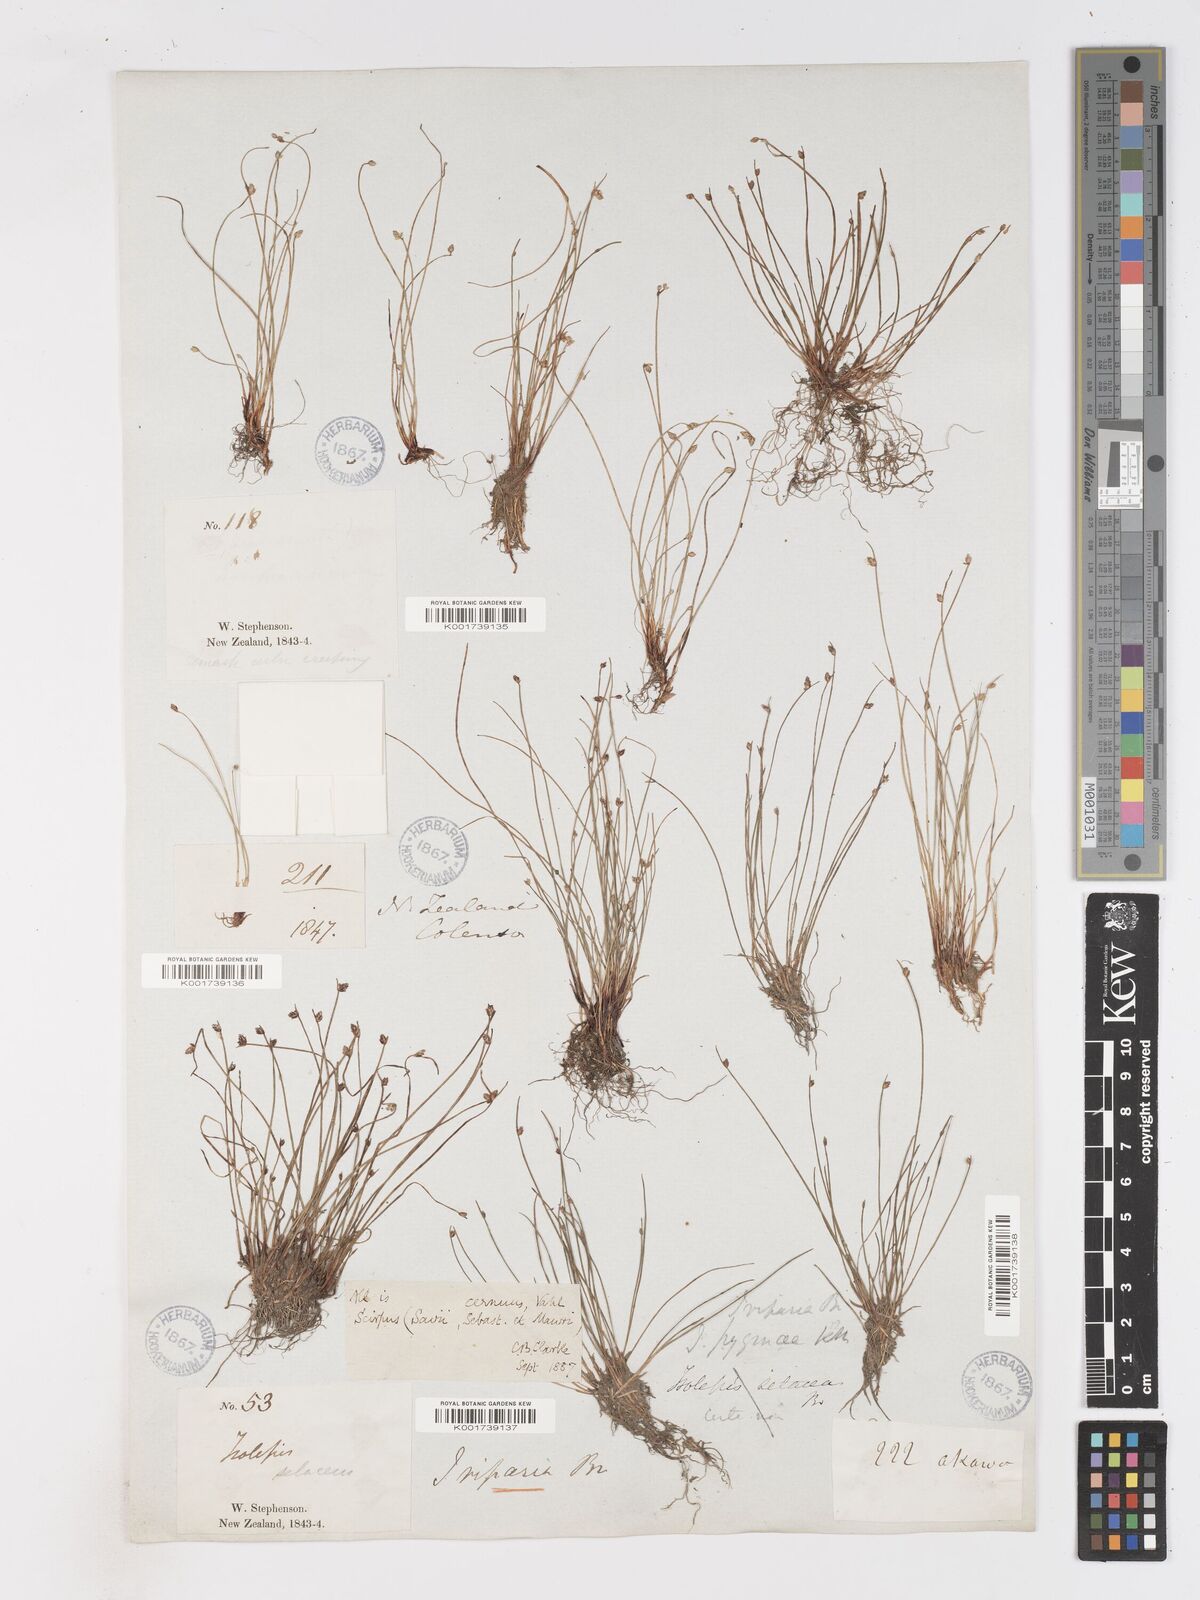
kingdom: Plantae
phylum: Tracheophyta
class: Liliopsida
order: Poales
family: Cyperaceae
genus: Isolepis
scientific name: Isolepis cernua
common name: Slender club-rush
